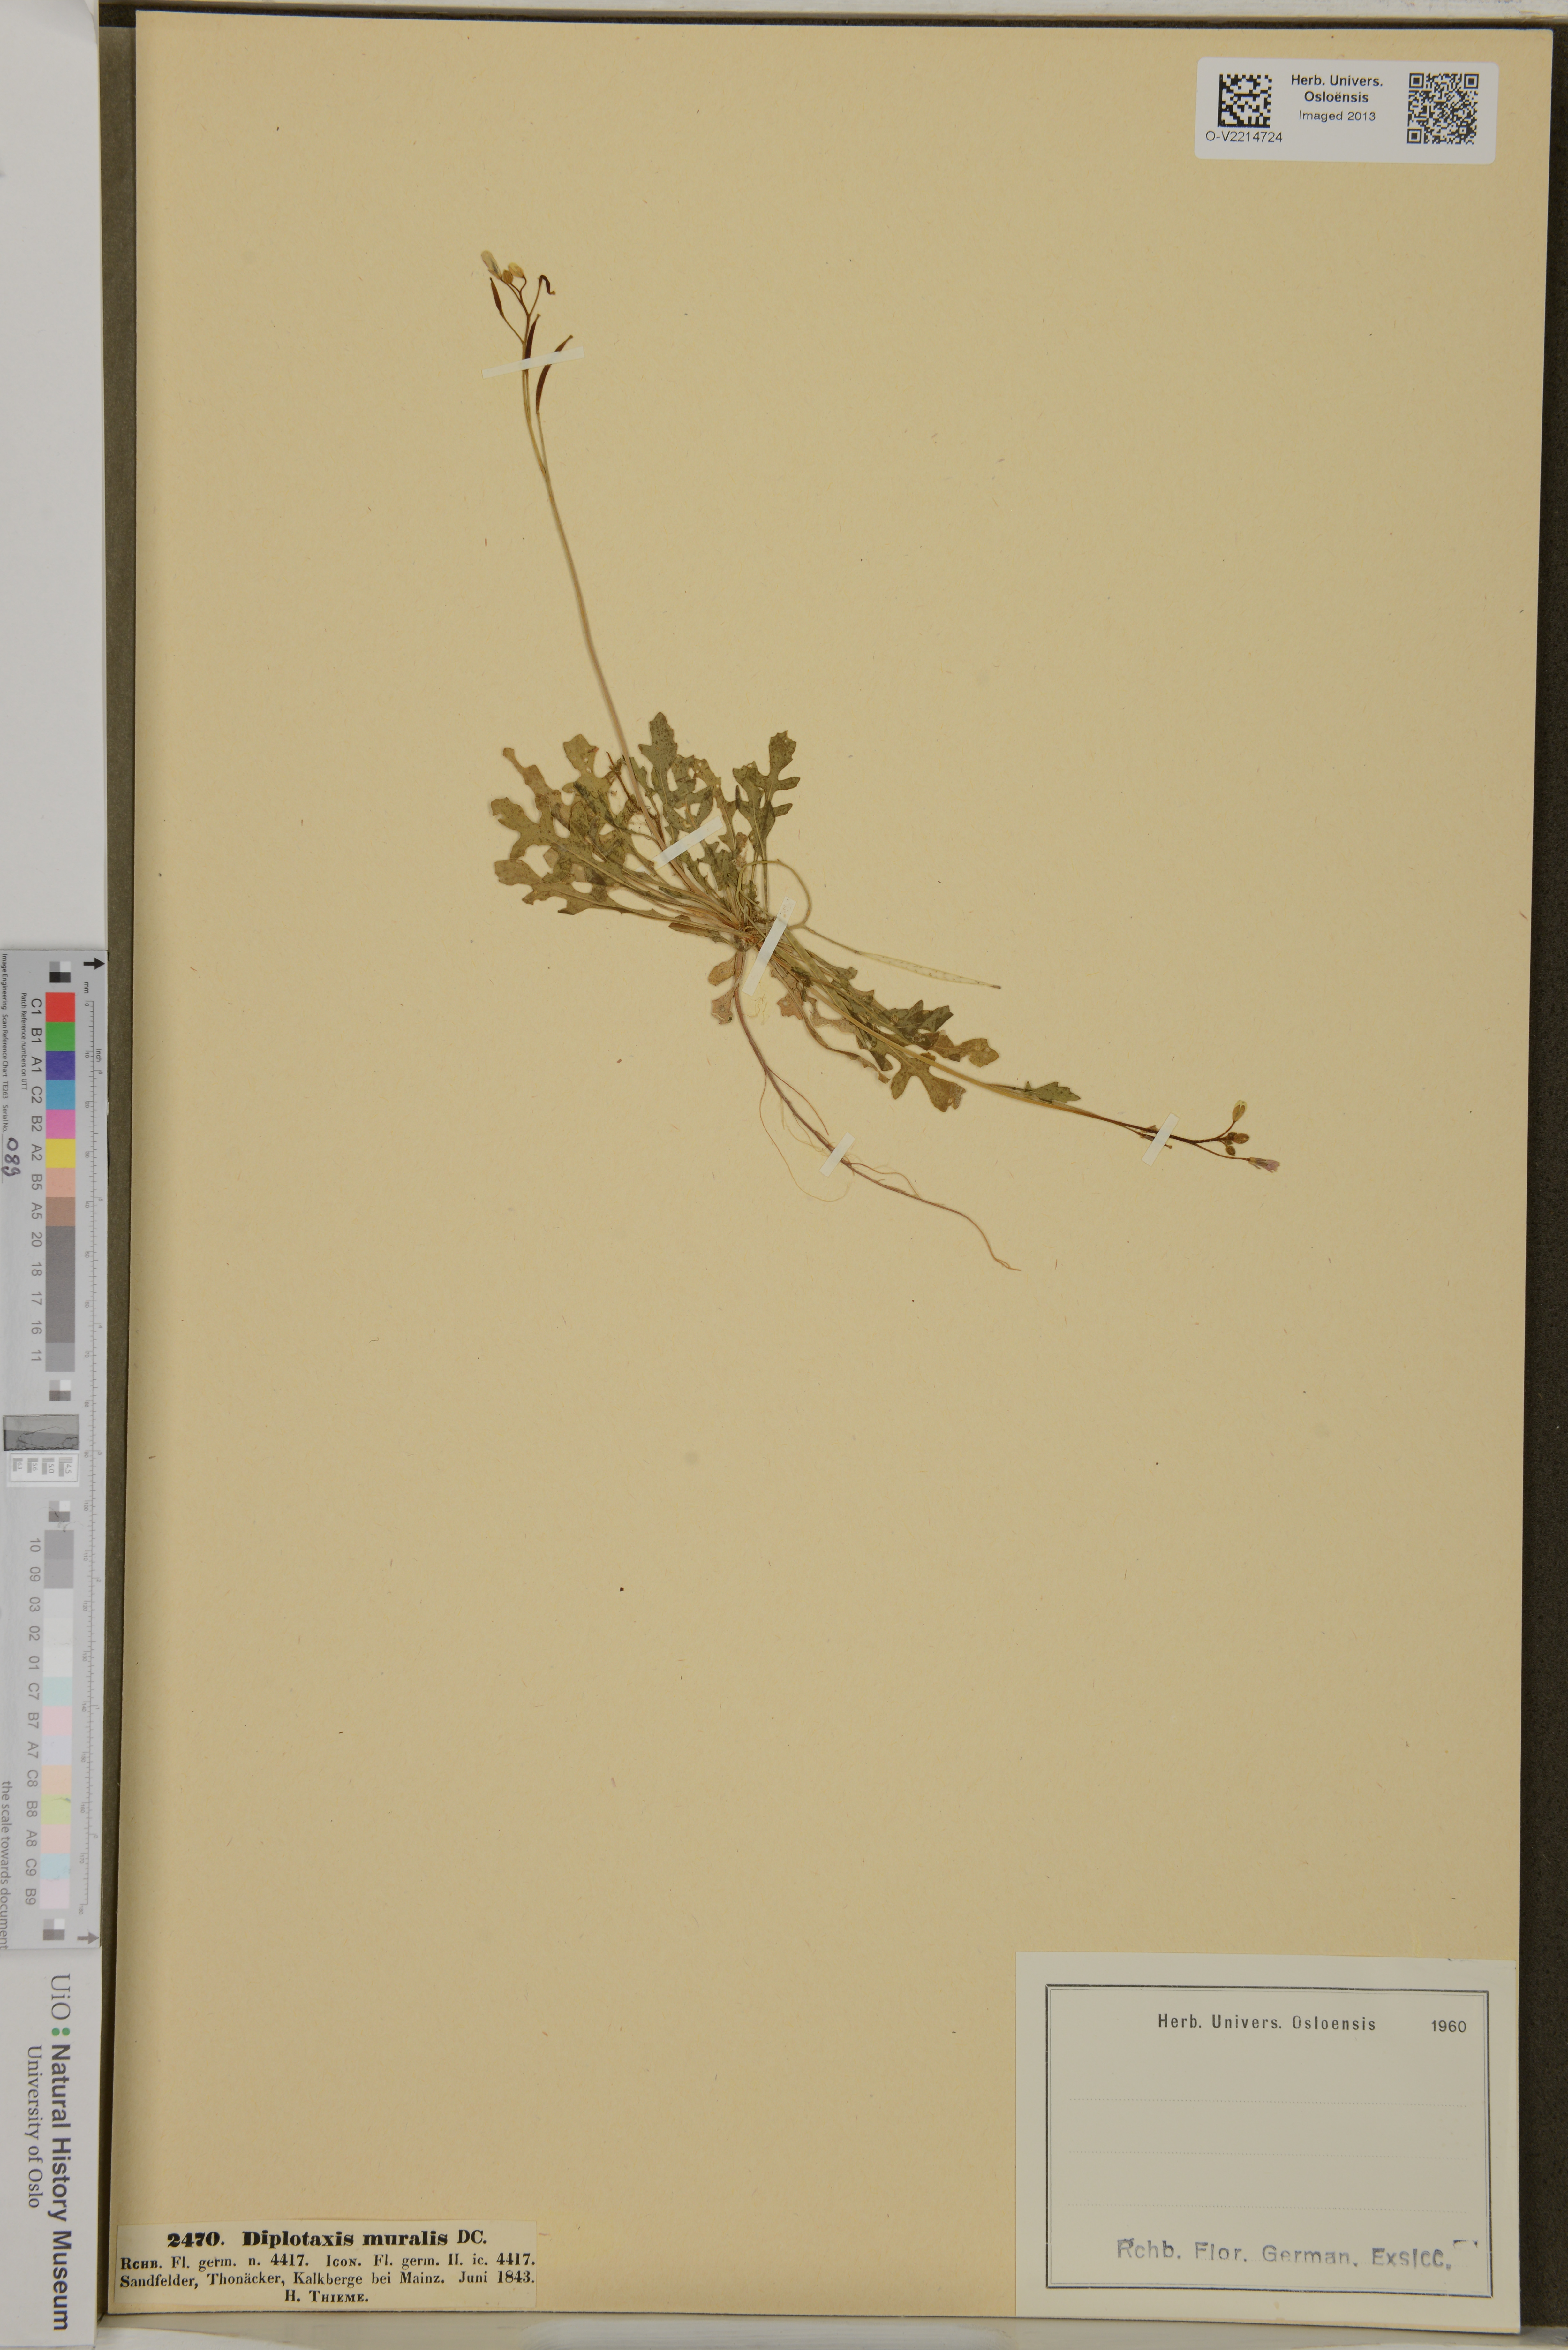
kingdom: Plantae
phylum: Tracheophyta
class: Magnoliopsida
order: Brassicales
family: Brassicaceae
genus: Diplotaxis
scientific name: Diplotaxis muralis
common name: Annual wall-rocket
